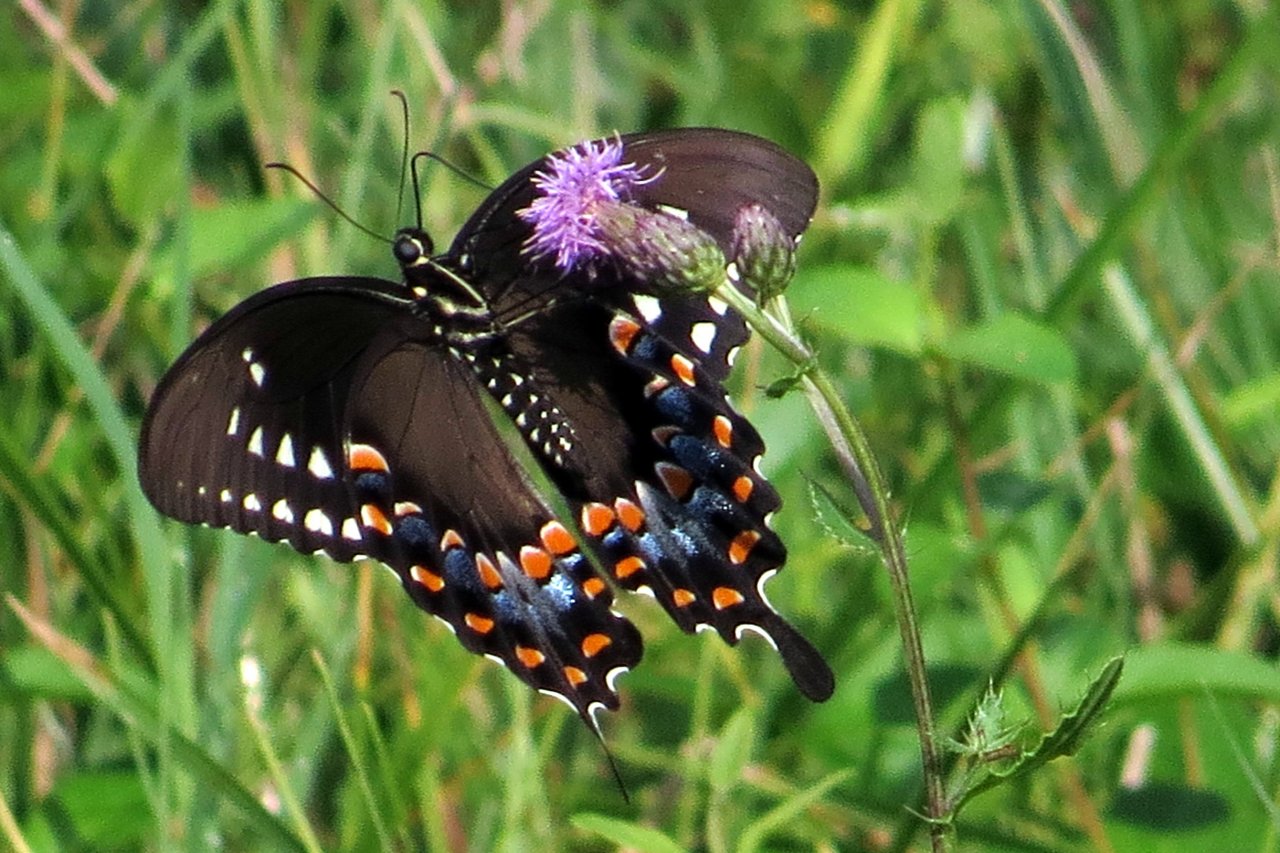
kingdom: Animalia
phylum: Arthropoda
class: Insecta
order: Lepidoptera
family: Papilionidae
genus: Pterourus
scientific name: Pterourus troilus
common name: Spicebush Swallowtail
